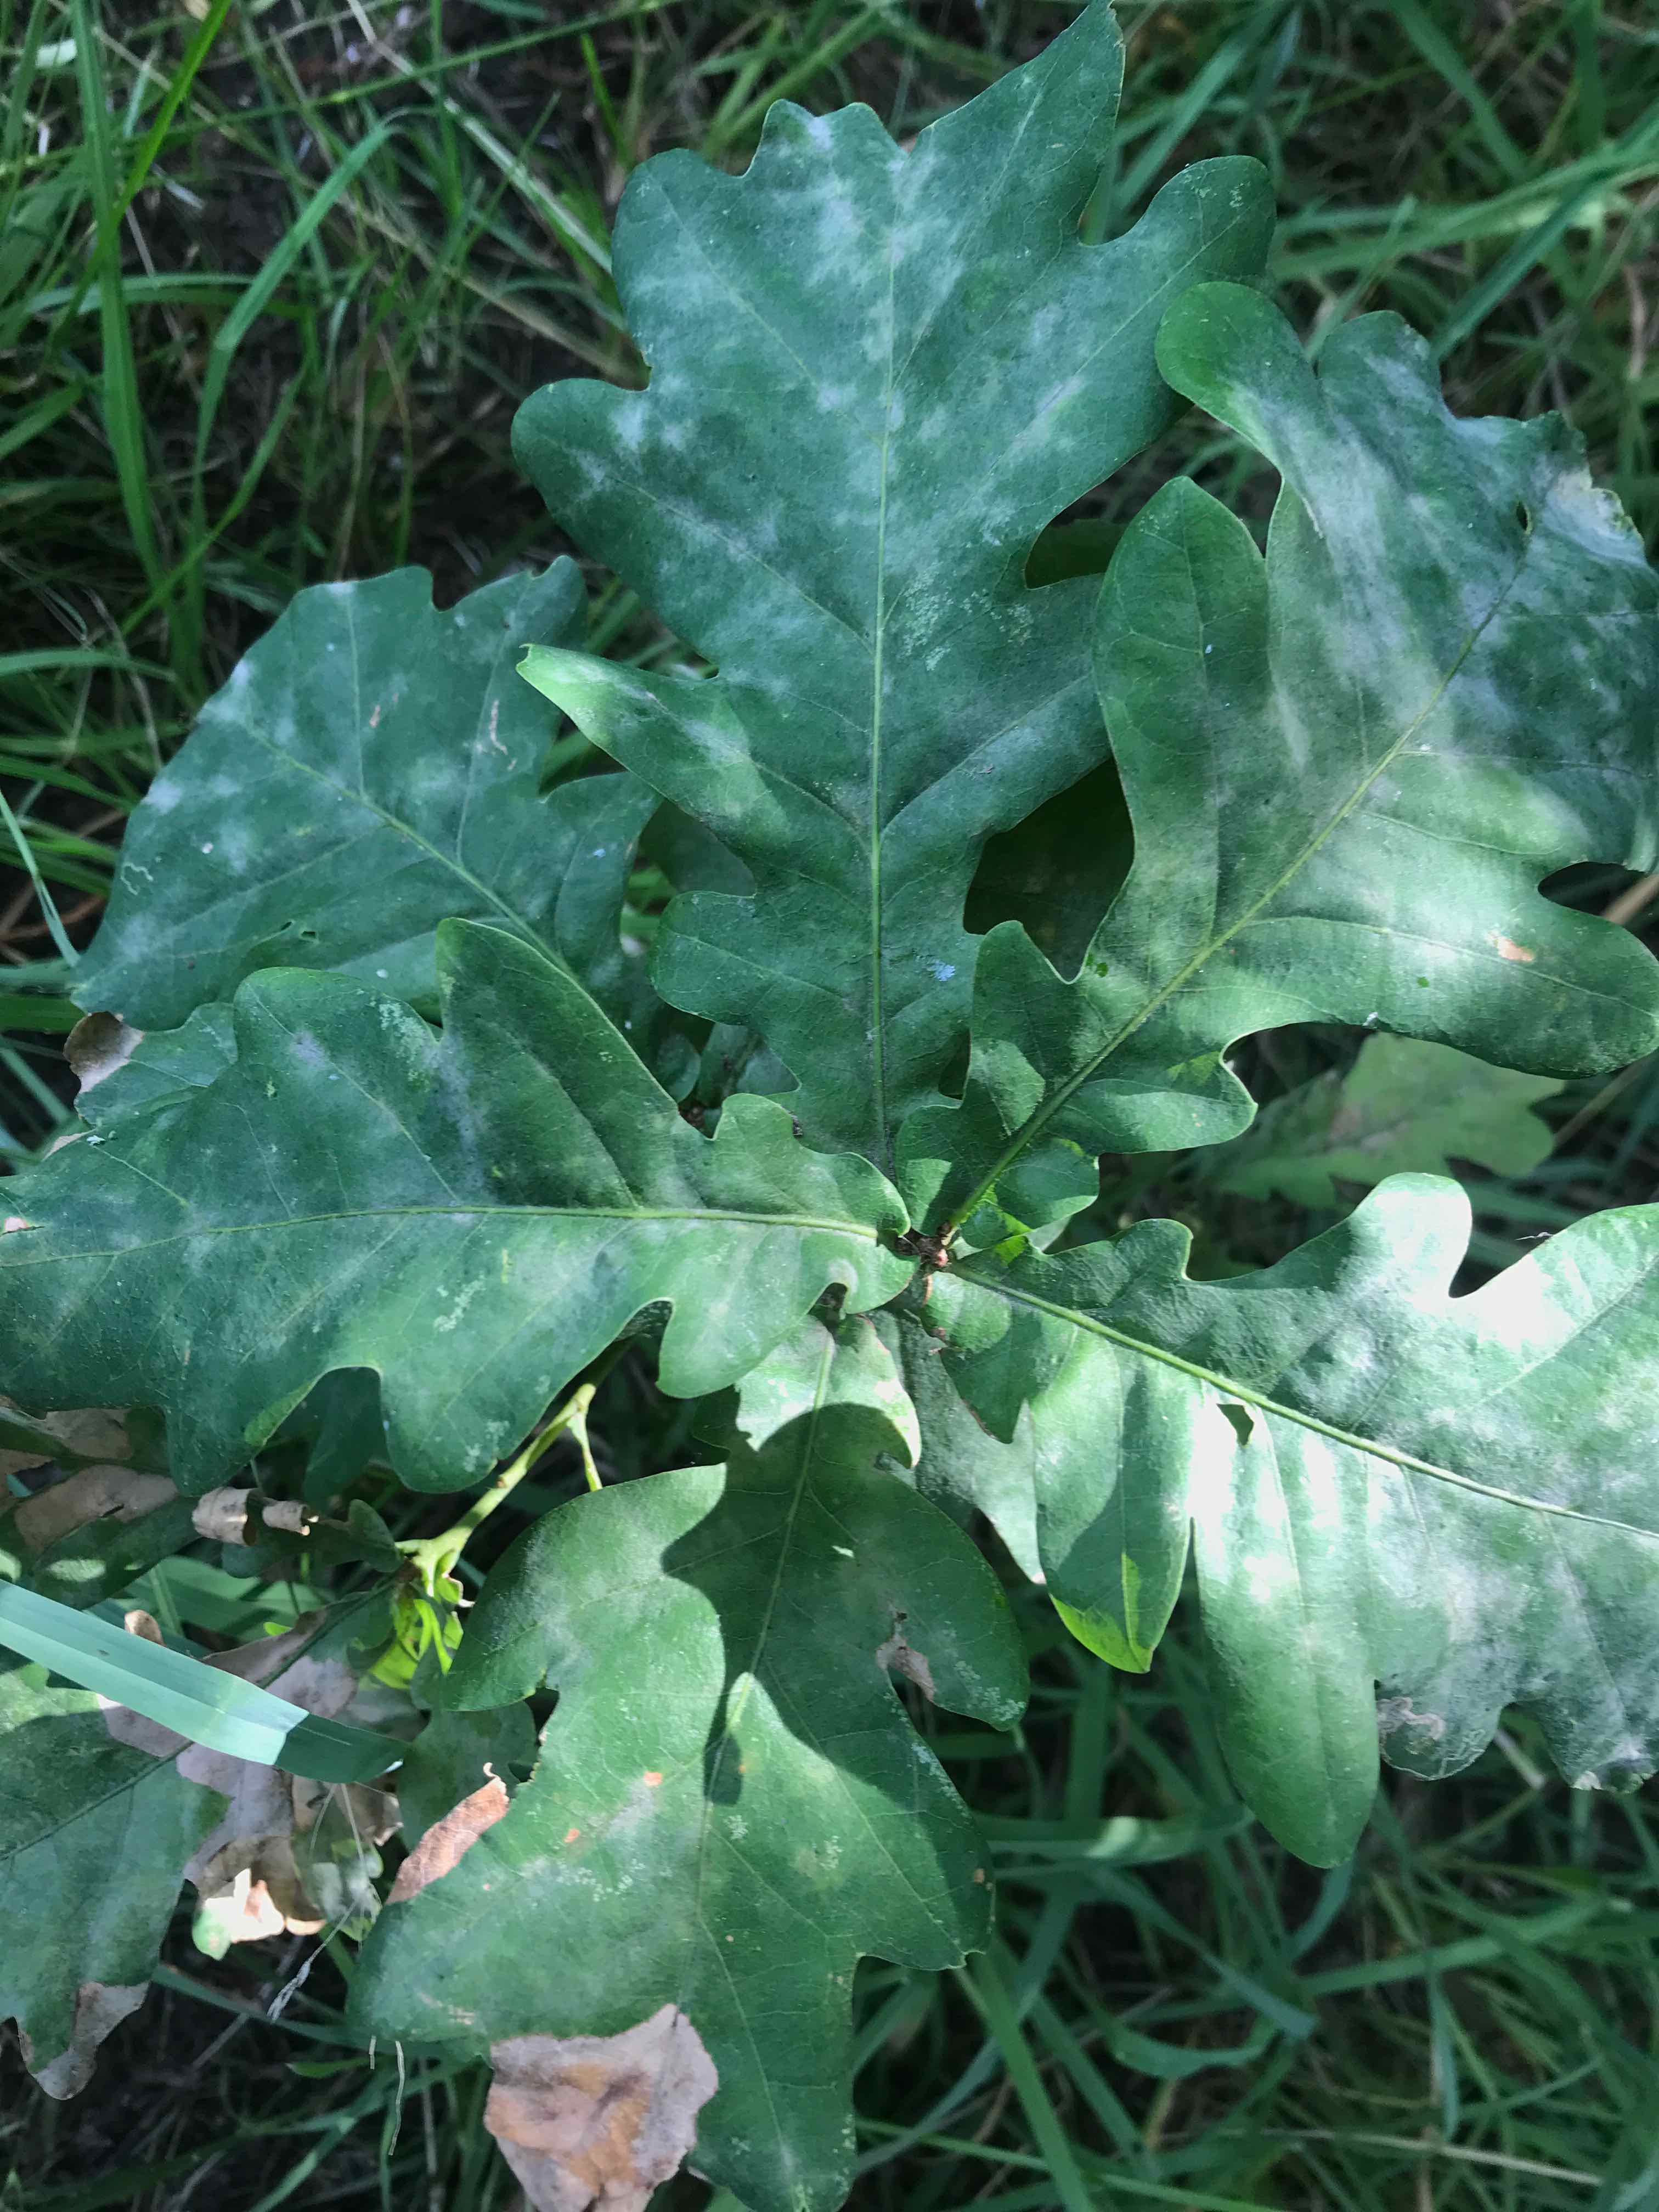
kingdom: Fungi
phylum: Ascomycota
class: Leotiomycetes
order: Helotiales
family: Erysiphaceae
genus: Erysiphe
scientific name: Erysiphe alphitoides
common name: ege-meldug
